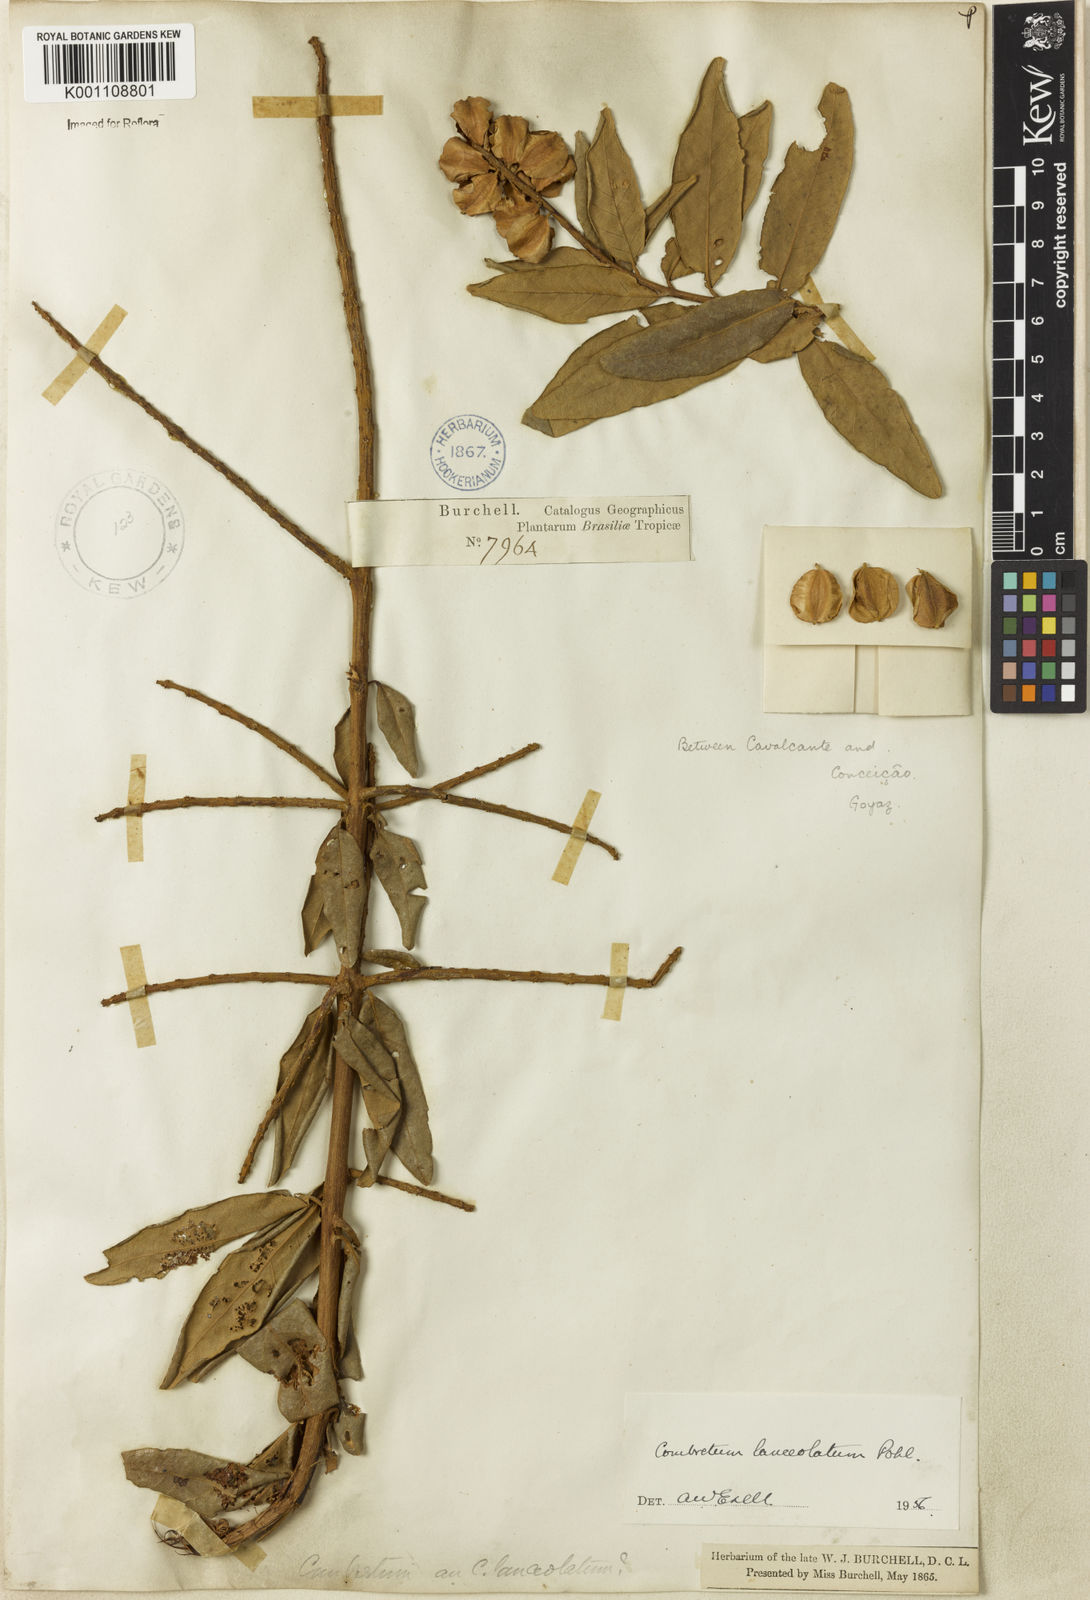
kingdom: Plantae
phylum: Tracheophyta
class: Magnoliopsida
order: Myrtales
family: Combretaceae
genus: Combretum
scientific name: Combretum lanceolatum
